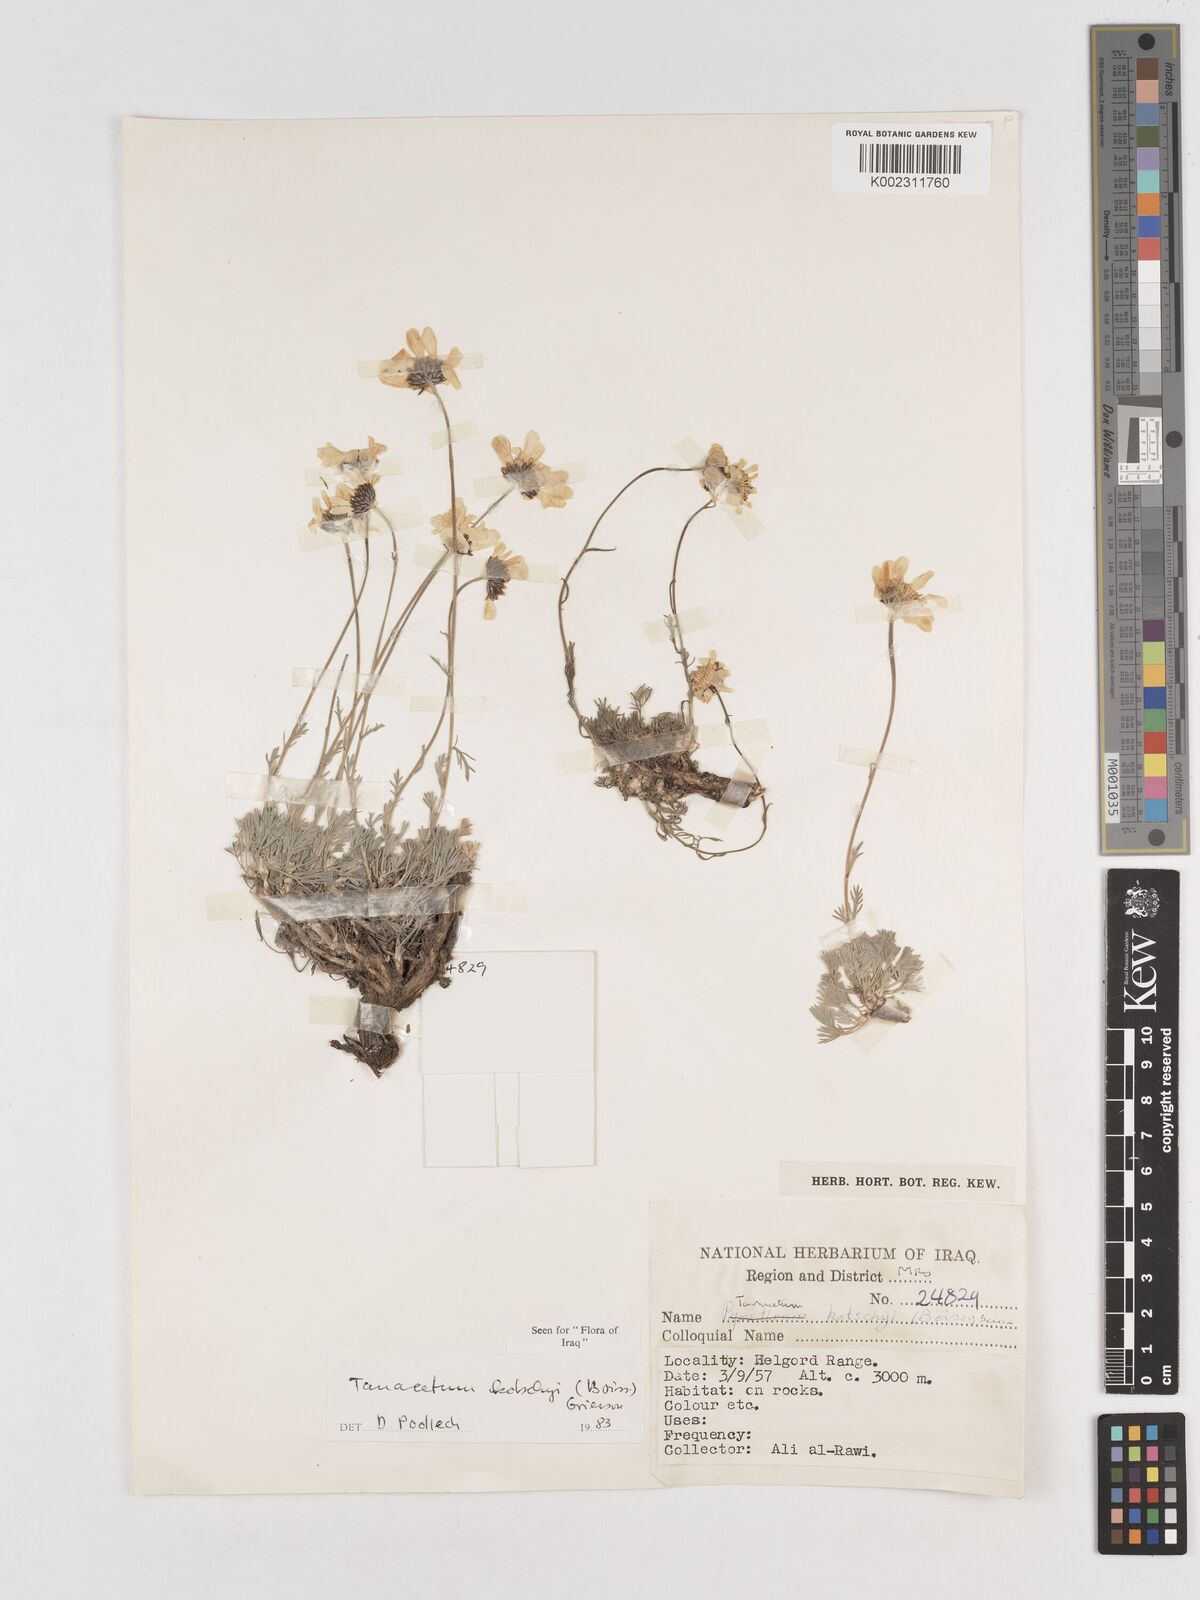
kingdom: Plantae
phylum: Tracheophyta
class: Magnoliopsida
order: Asterales
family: Asteraceae
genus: Tanacetum
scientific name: Tanacetum polycephalum
